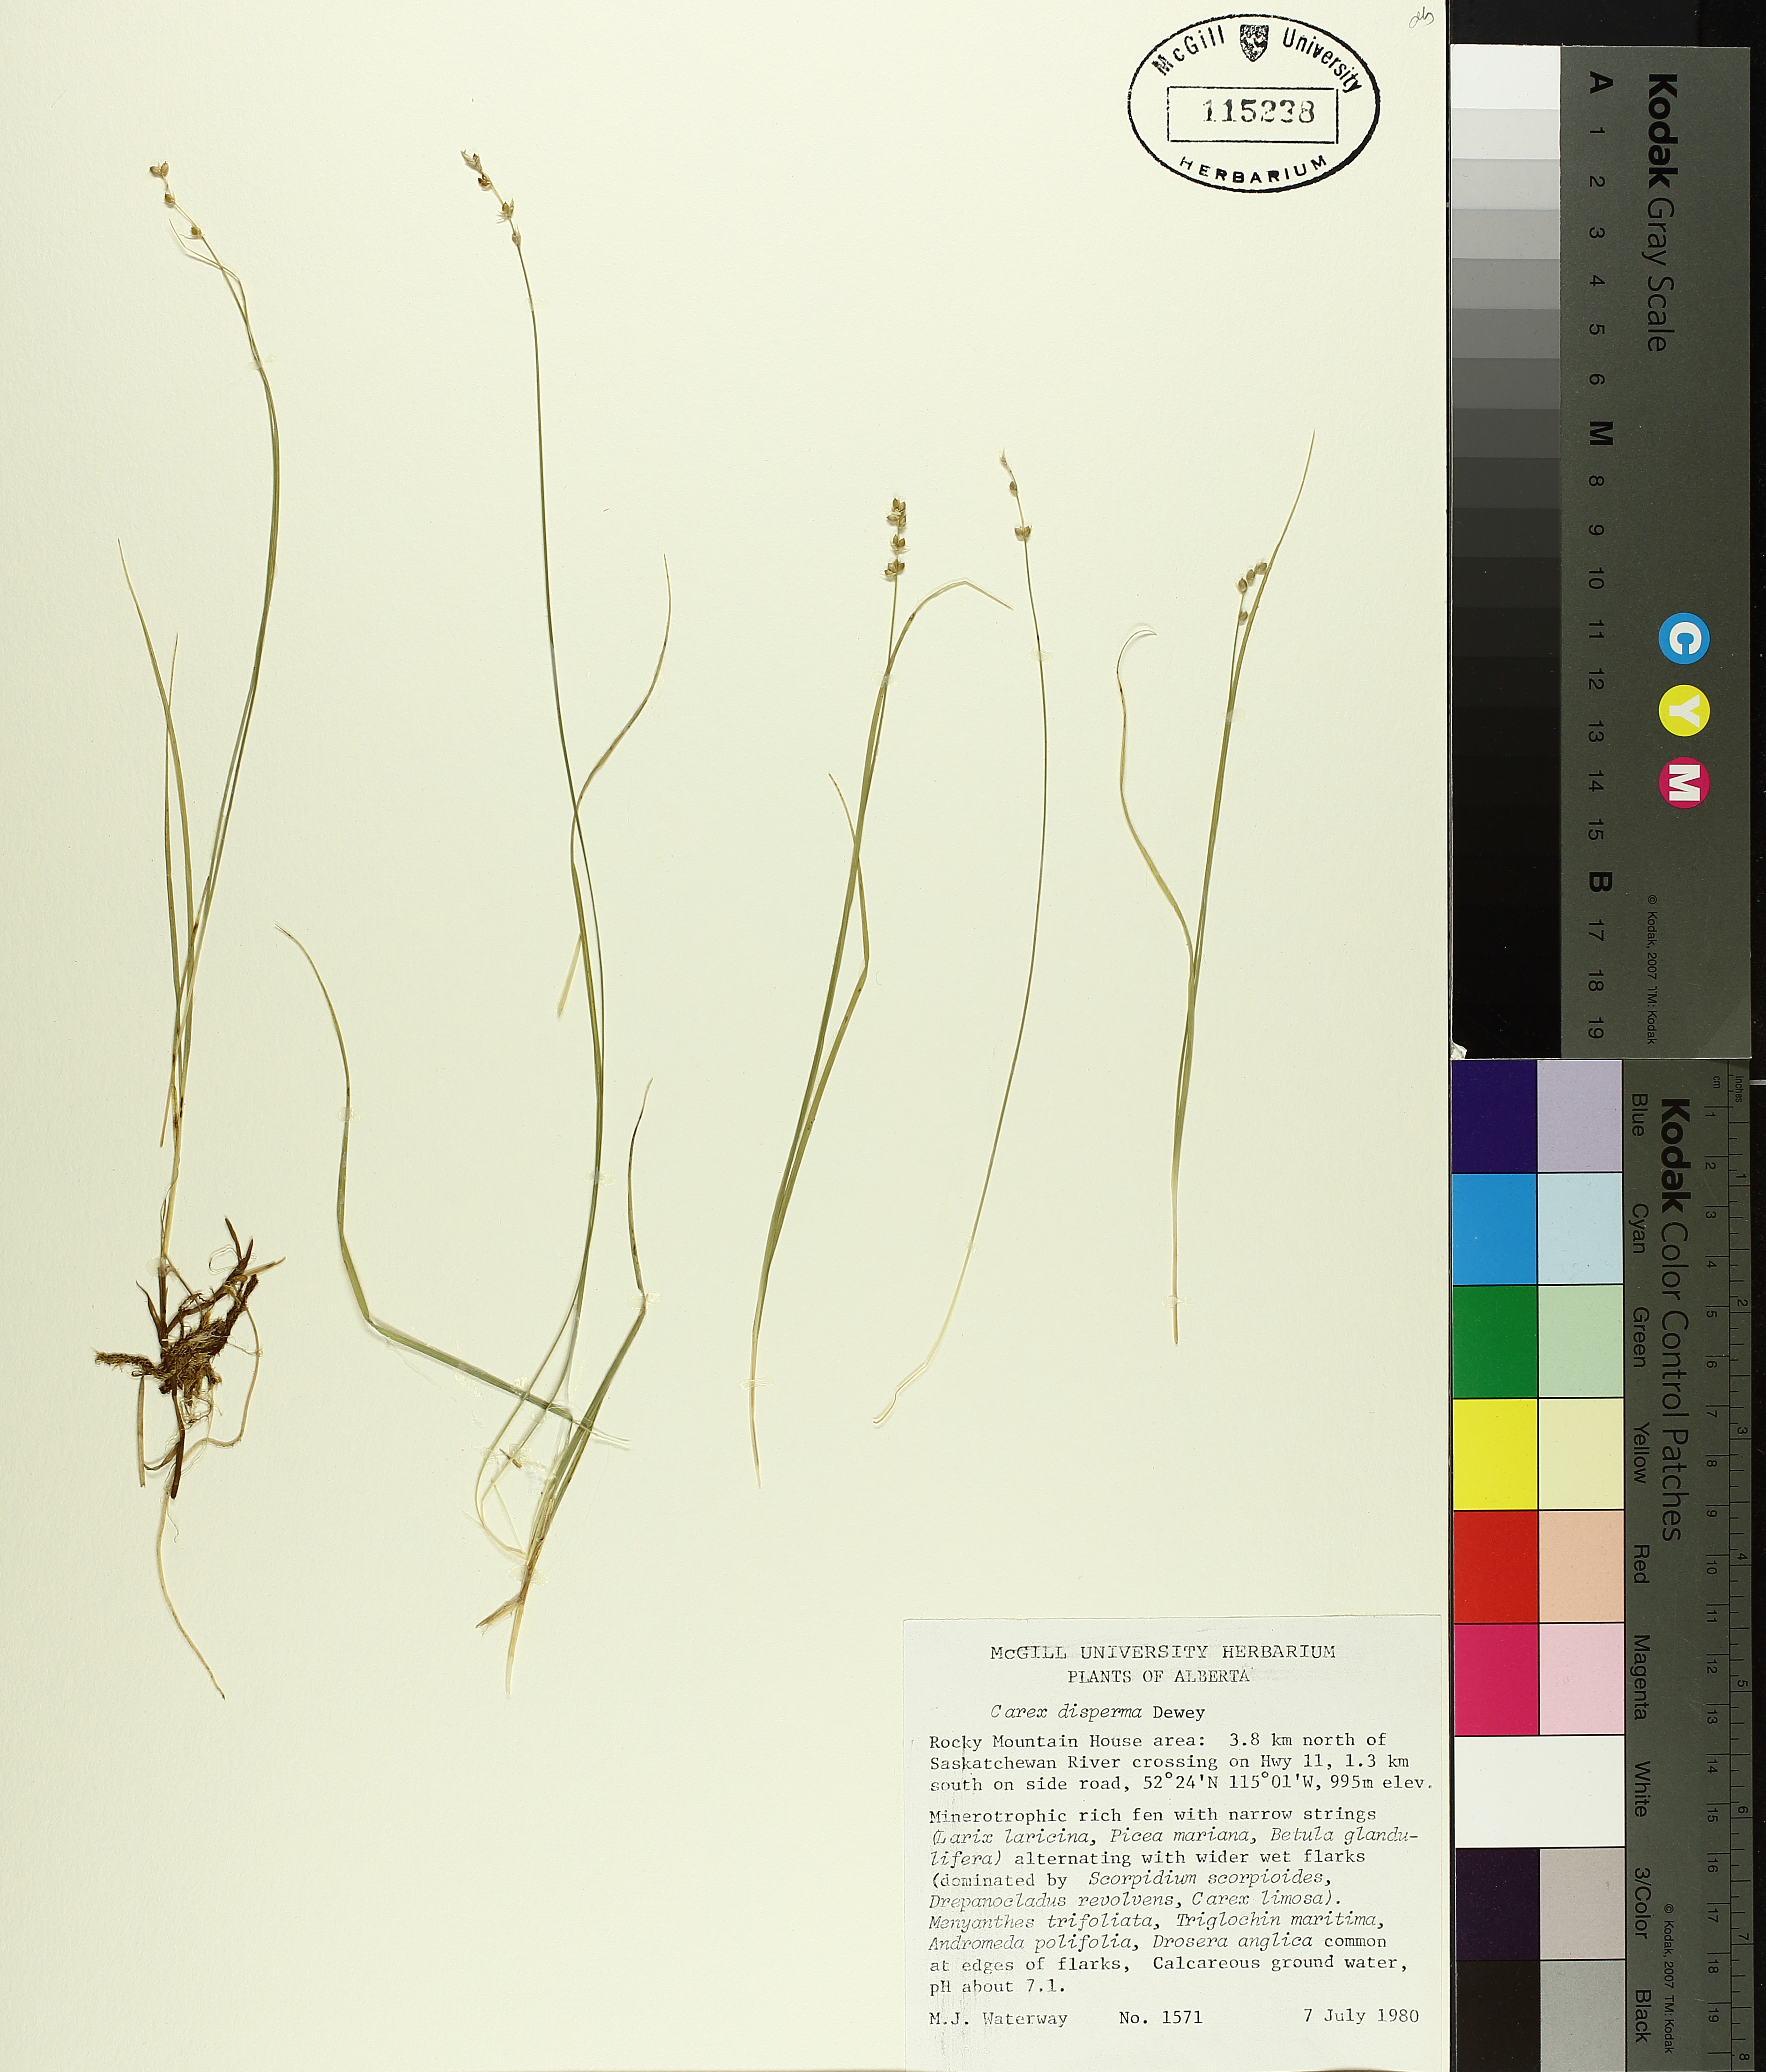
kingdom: Plantae
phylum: Tracheophyta
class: Liliopsida
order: Poales
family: Cyperaceae
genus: Carex
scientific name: Carex disperma
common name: Short-leaved sedge
